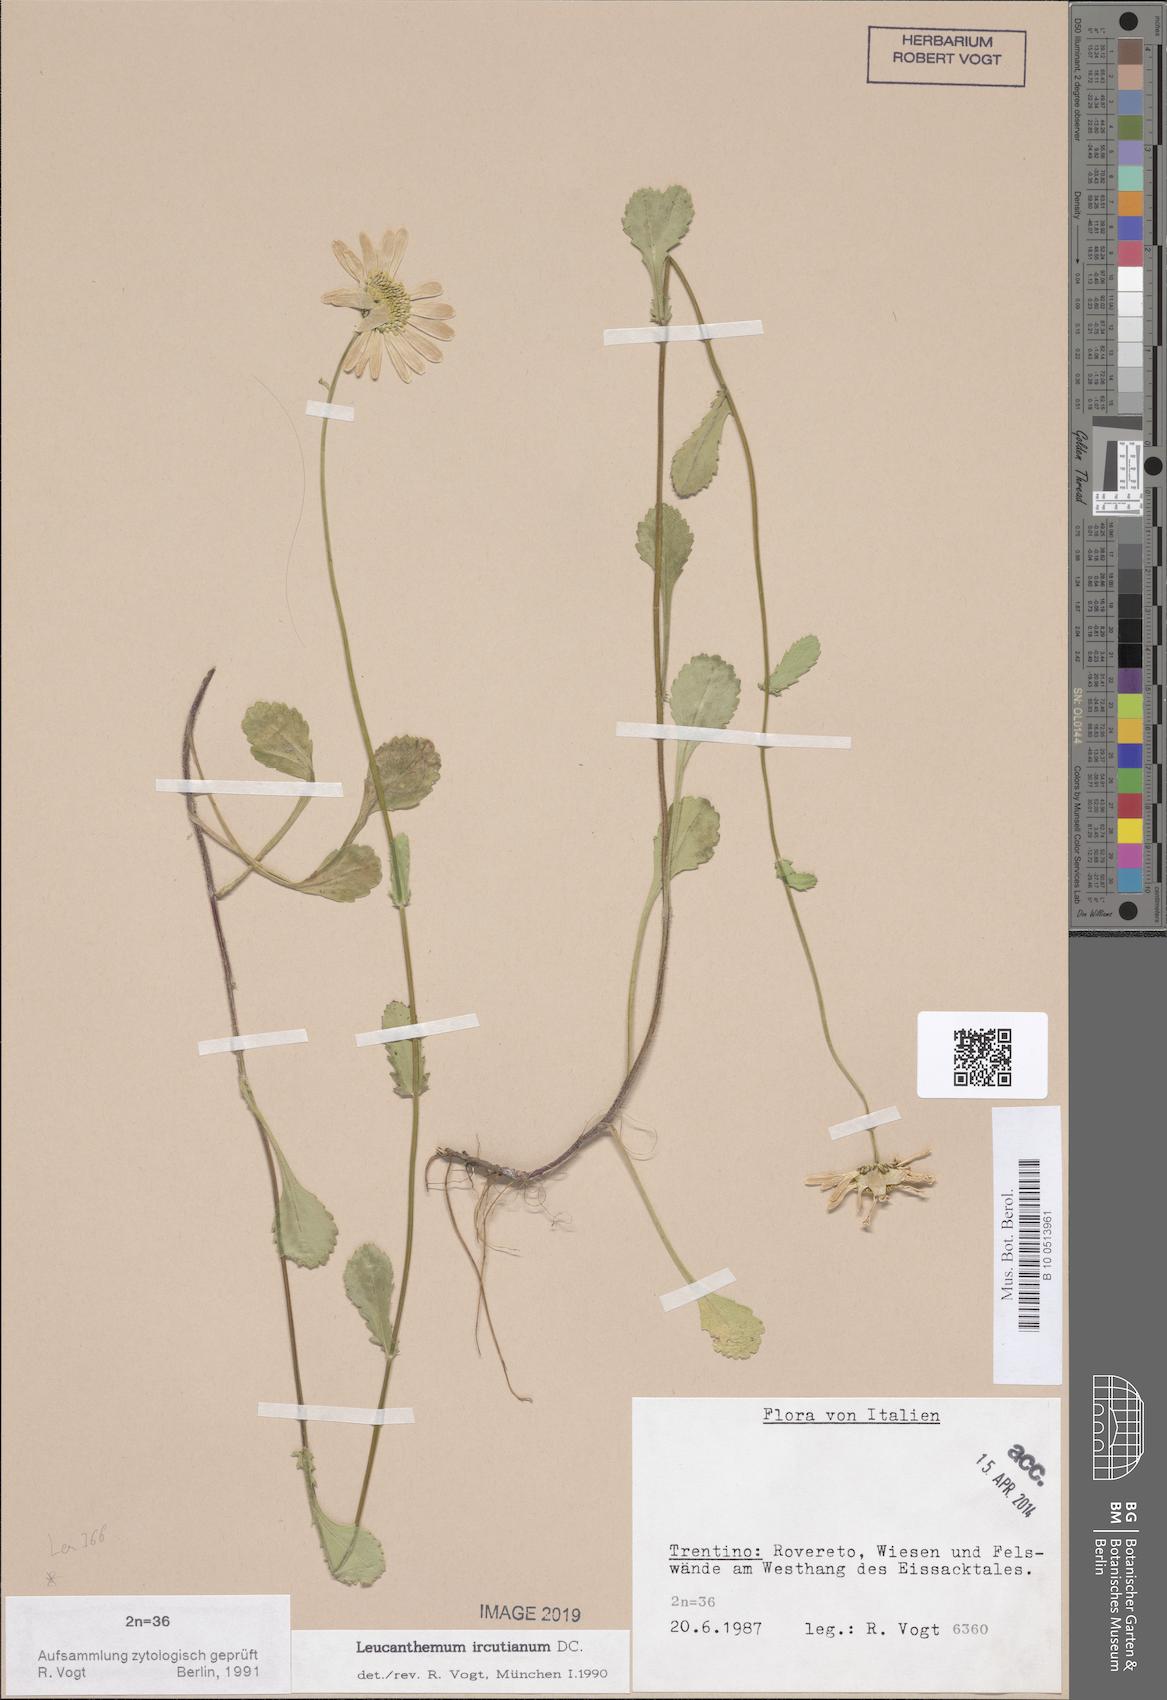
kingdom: Plantae
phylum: Tracheophyta
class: Magnoliopsida
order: Asterales
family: Asteraceae
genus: Leucanthemum
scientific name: Leucanthemum ircutianum
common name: Daisy
